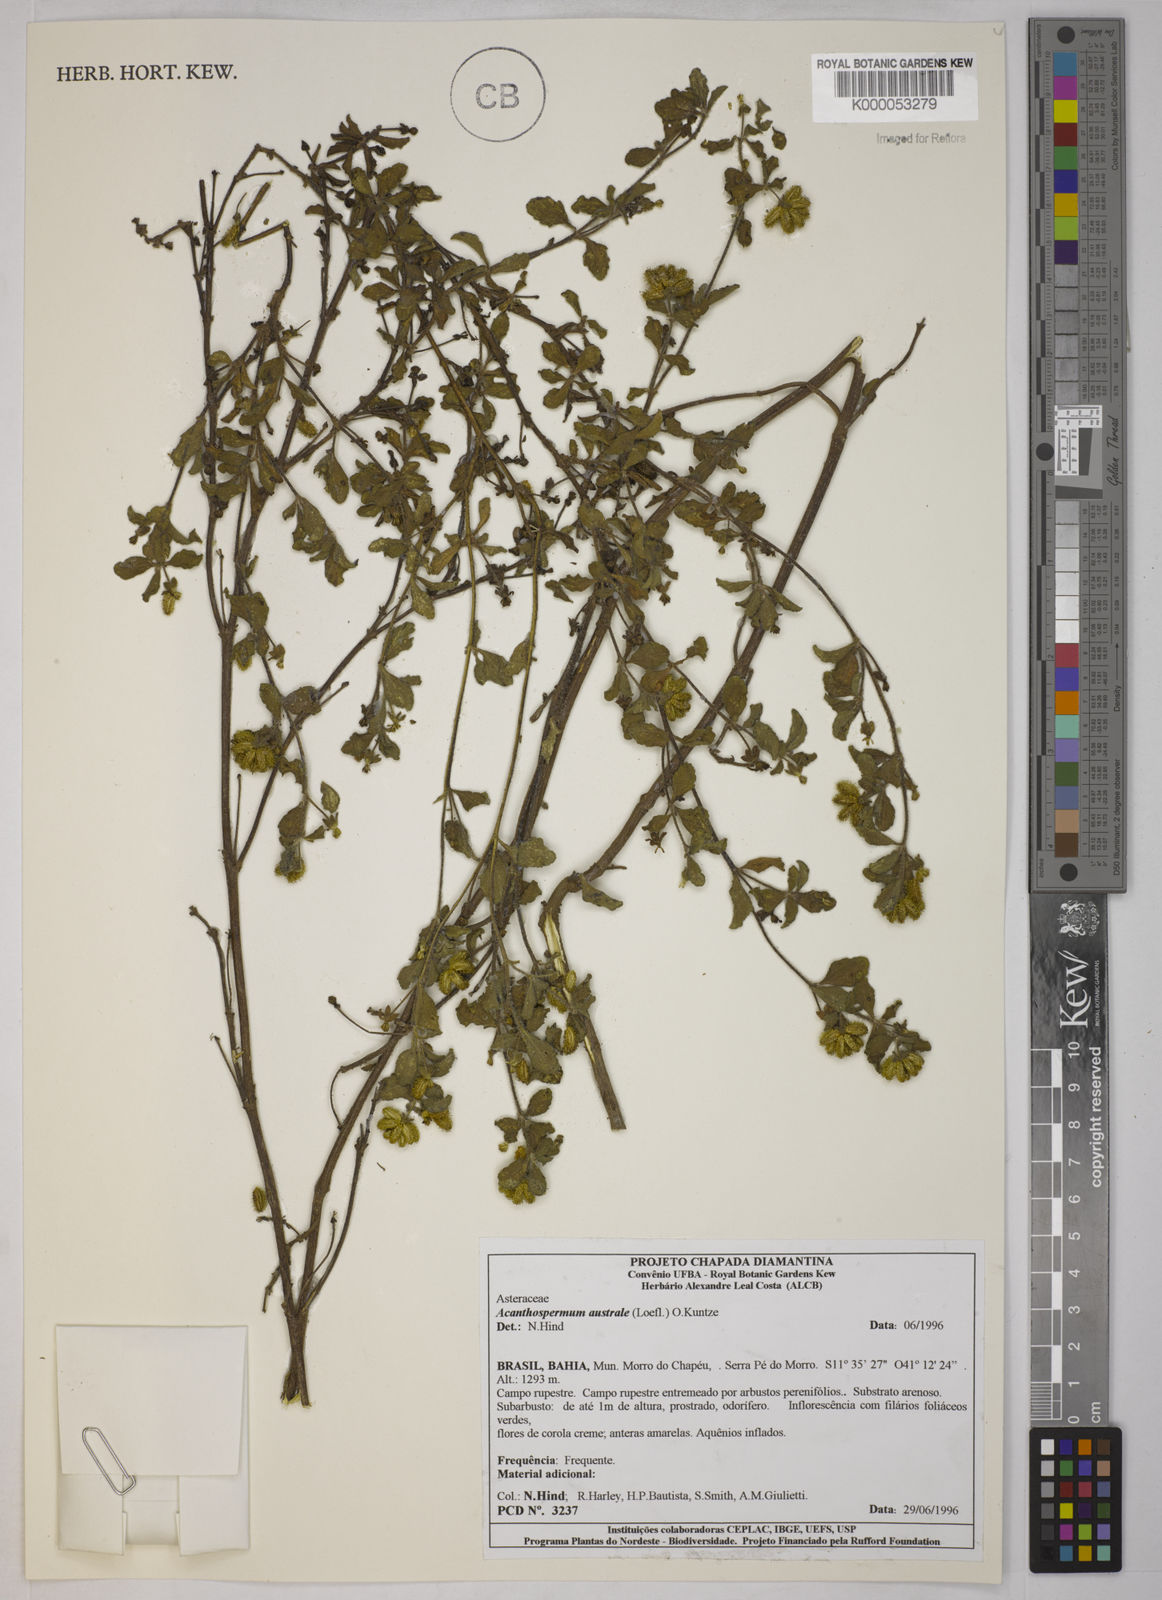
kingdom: Plantae
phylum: Tracheophyta
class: Magnoliopsida
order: Asterales
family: Asteraceae
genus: Acanthospermum
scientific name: Acanthospermum australe
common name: Paraguayan starbur
